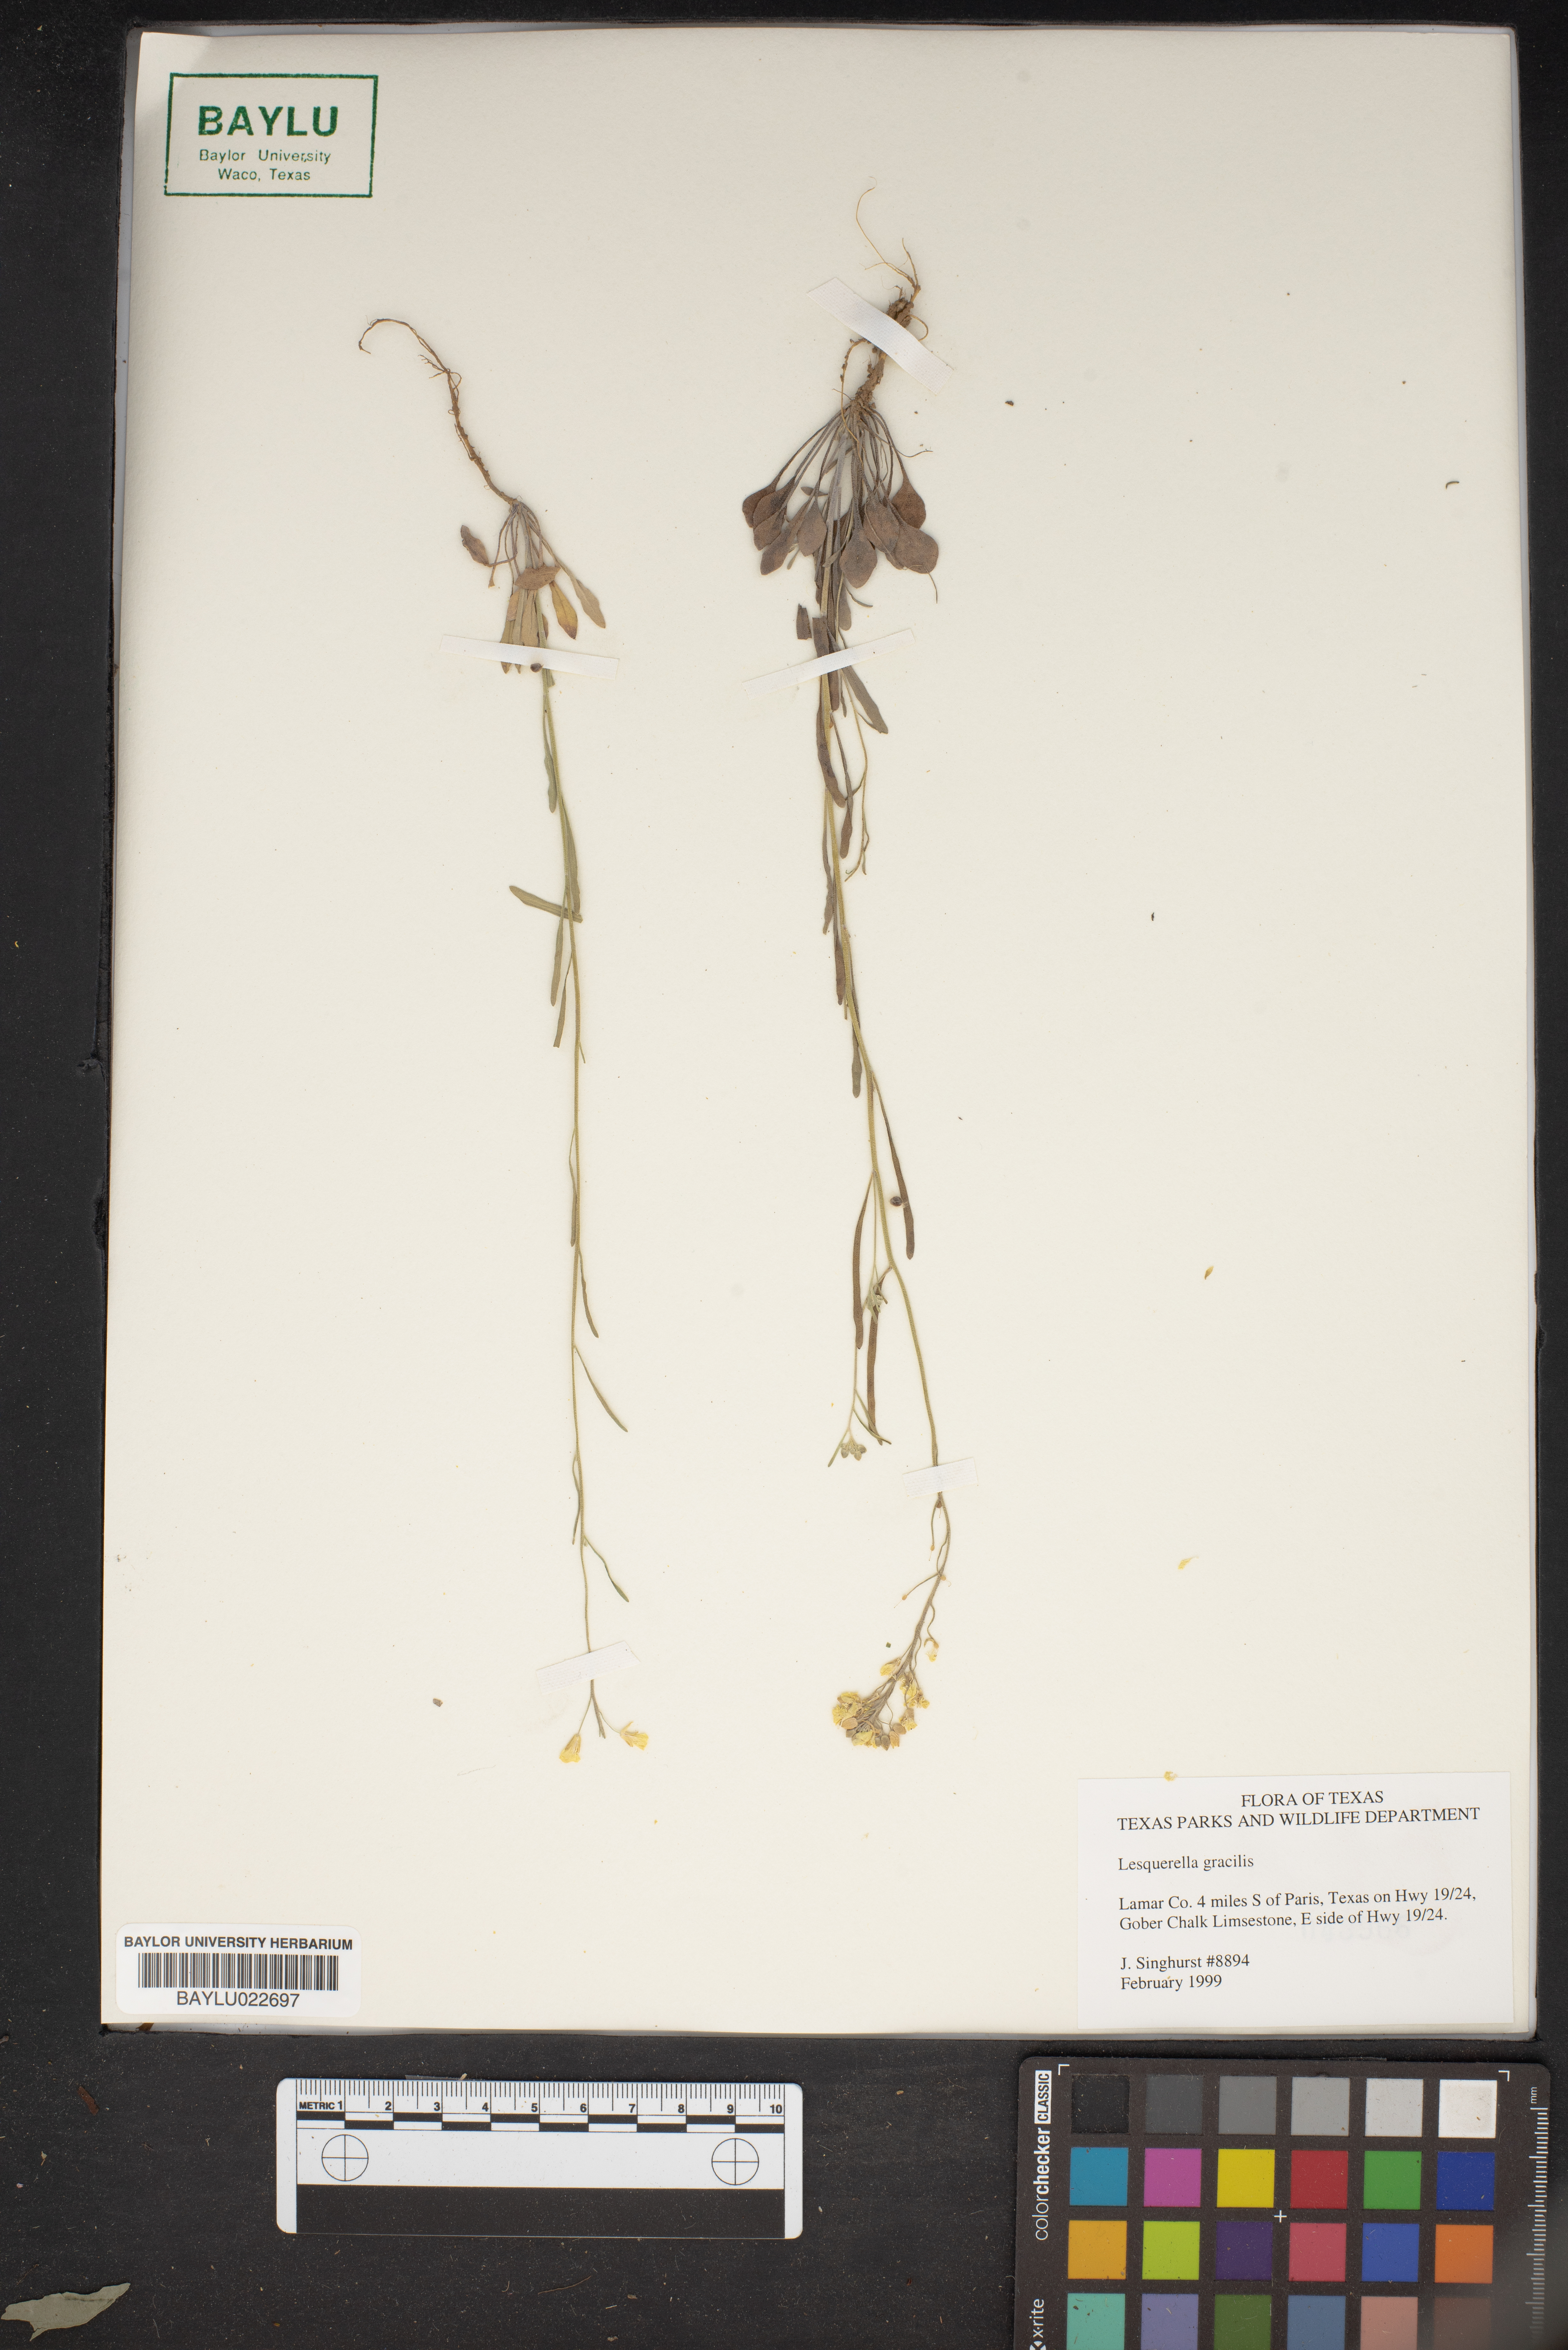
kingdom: Plantae
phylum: Tracheophyta
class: Magnoliopsida
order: Brassicales
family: Brassicaceae
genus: Physaria
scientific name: Physaria gracilis
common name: Spreading bladderpod
